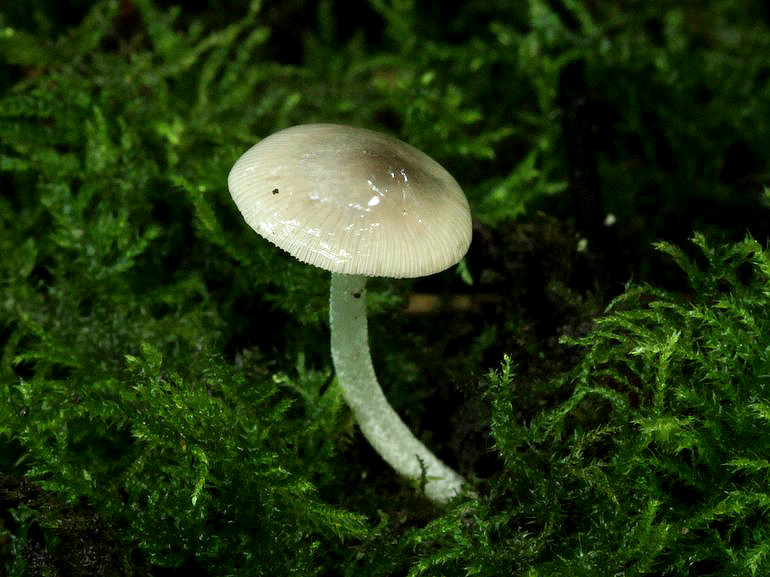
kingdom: Fungi
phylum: Basidiomycota
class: Agaricomycetes
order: Agaricales
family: Bolbitiaceae
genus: Bolbitius
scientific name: Bolbitius reticulatus
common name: Netted fieldcap
